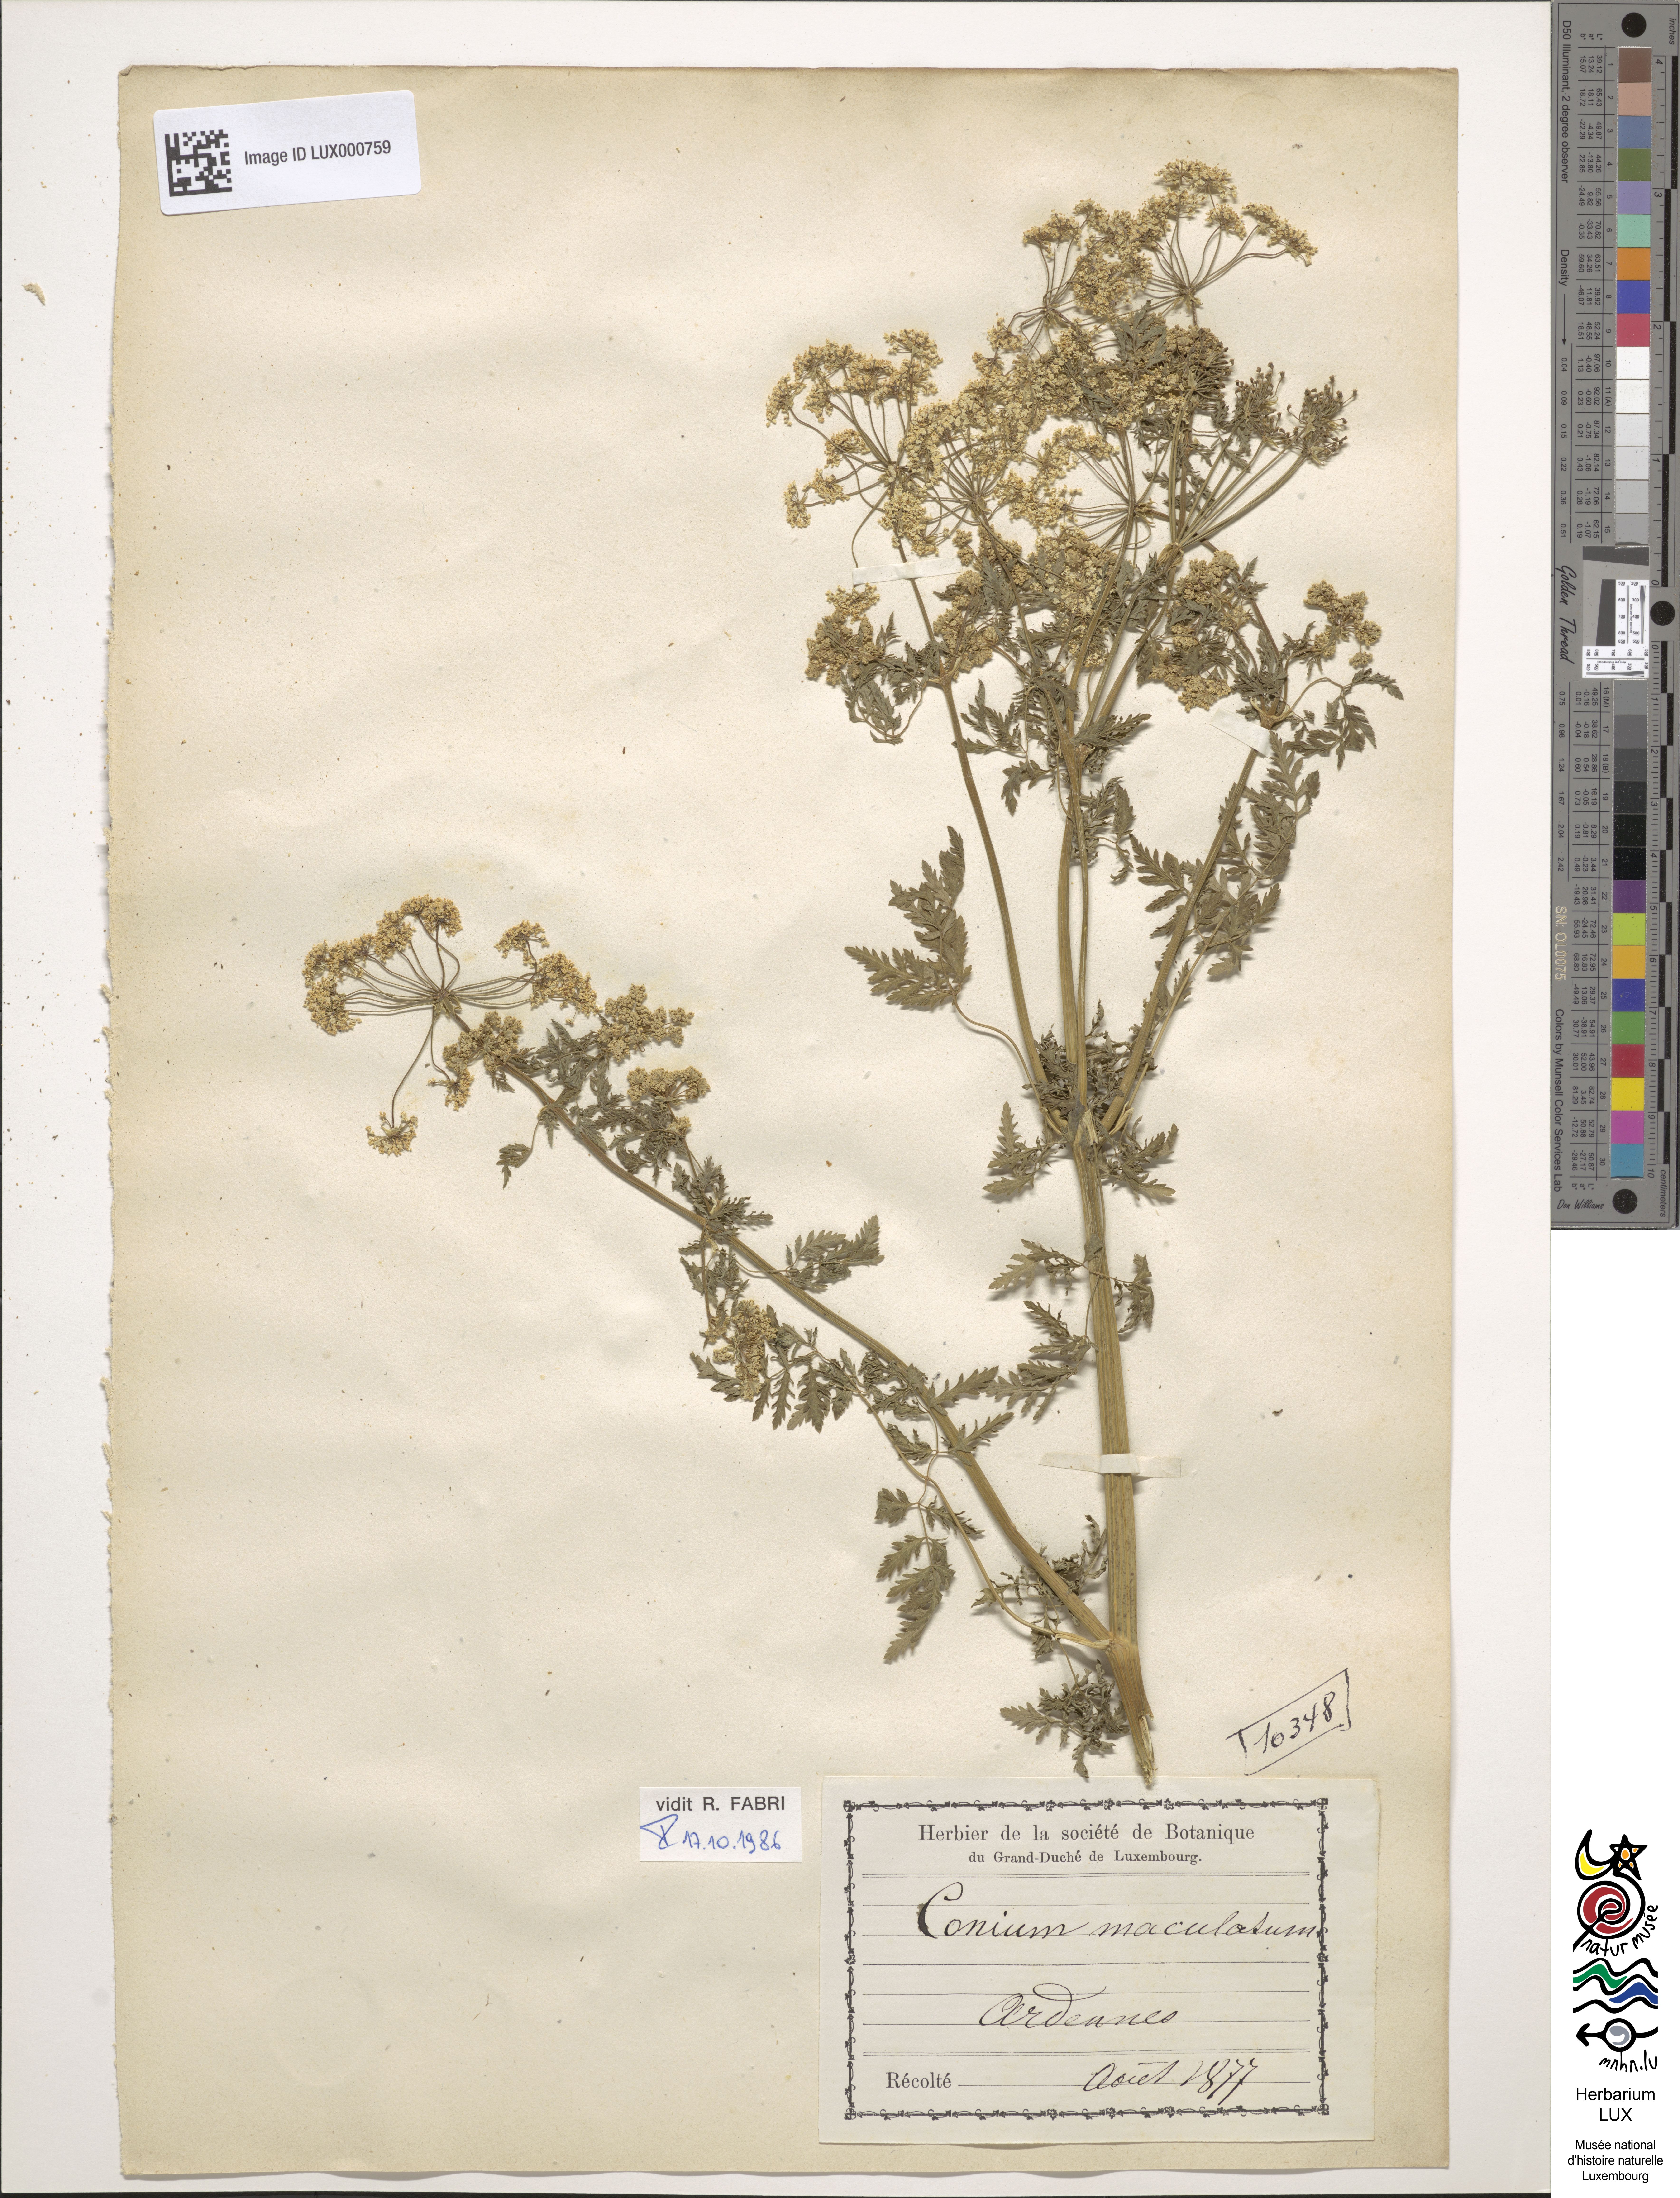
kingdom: Plantae
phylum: Tracheophyta
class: Magnoliopsida
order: Apiales
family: Apiaceae
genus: Conium
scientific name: Conium maculatum
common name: Hemlock
